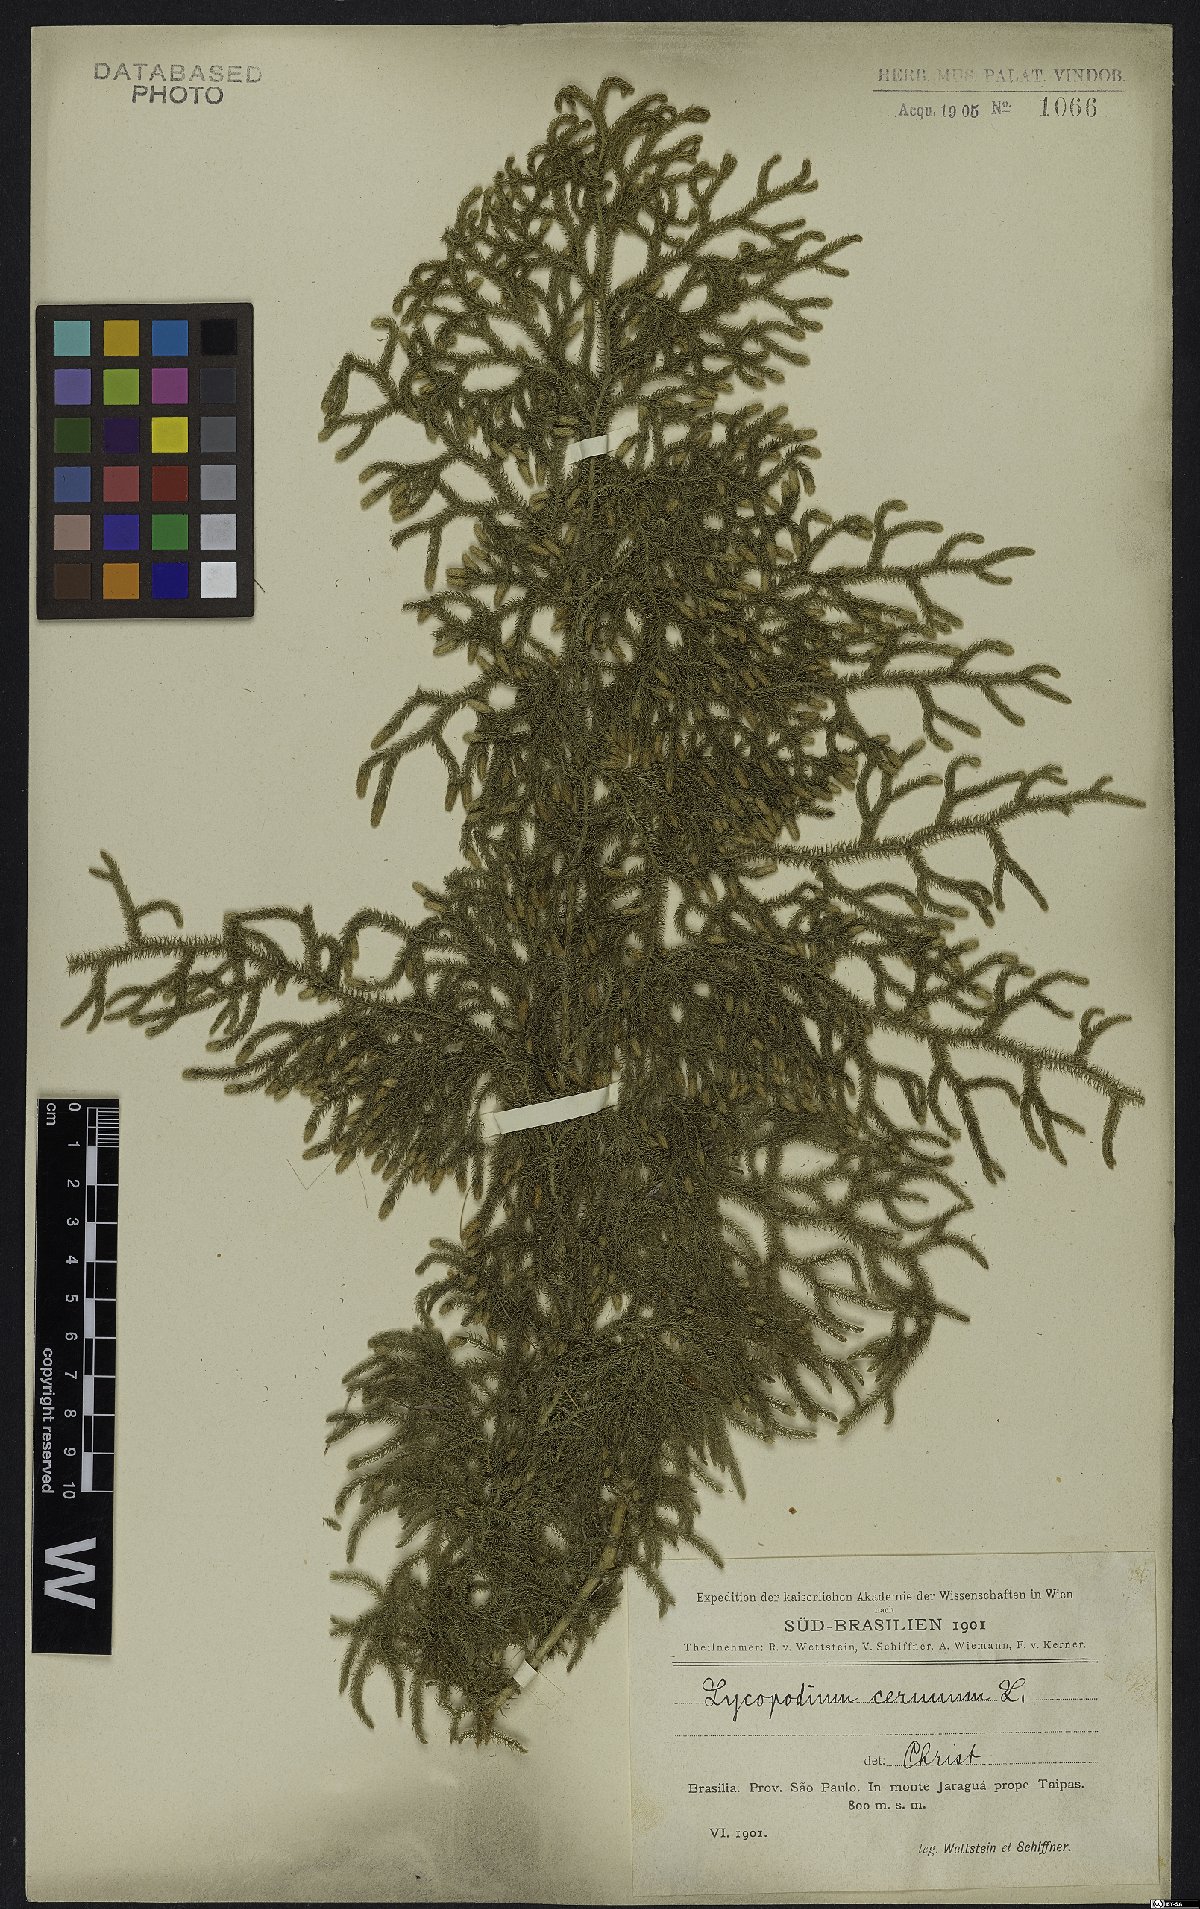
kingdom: Plantae
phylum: Tracheophyta
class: Lycopodiopsida
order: Lycopodiales
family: Lycopodiaceae
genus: Palhinhaea
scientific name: Palhinhaea cernua
